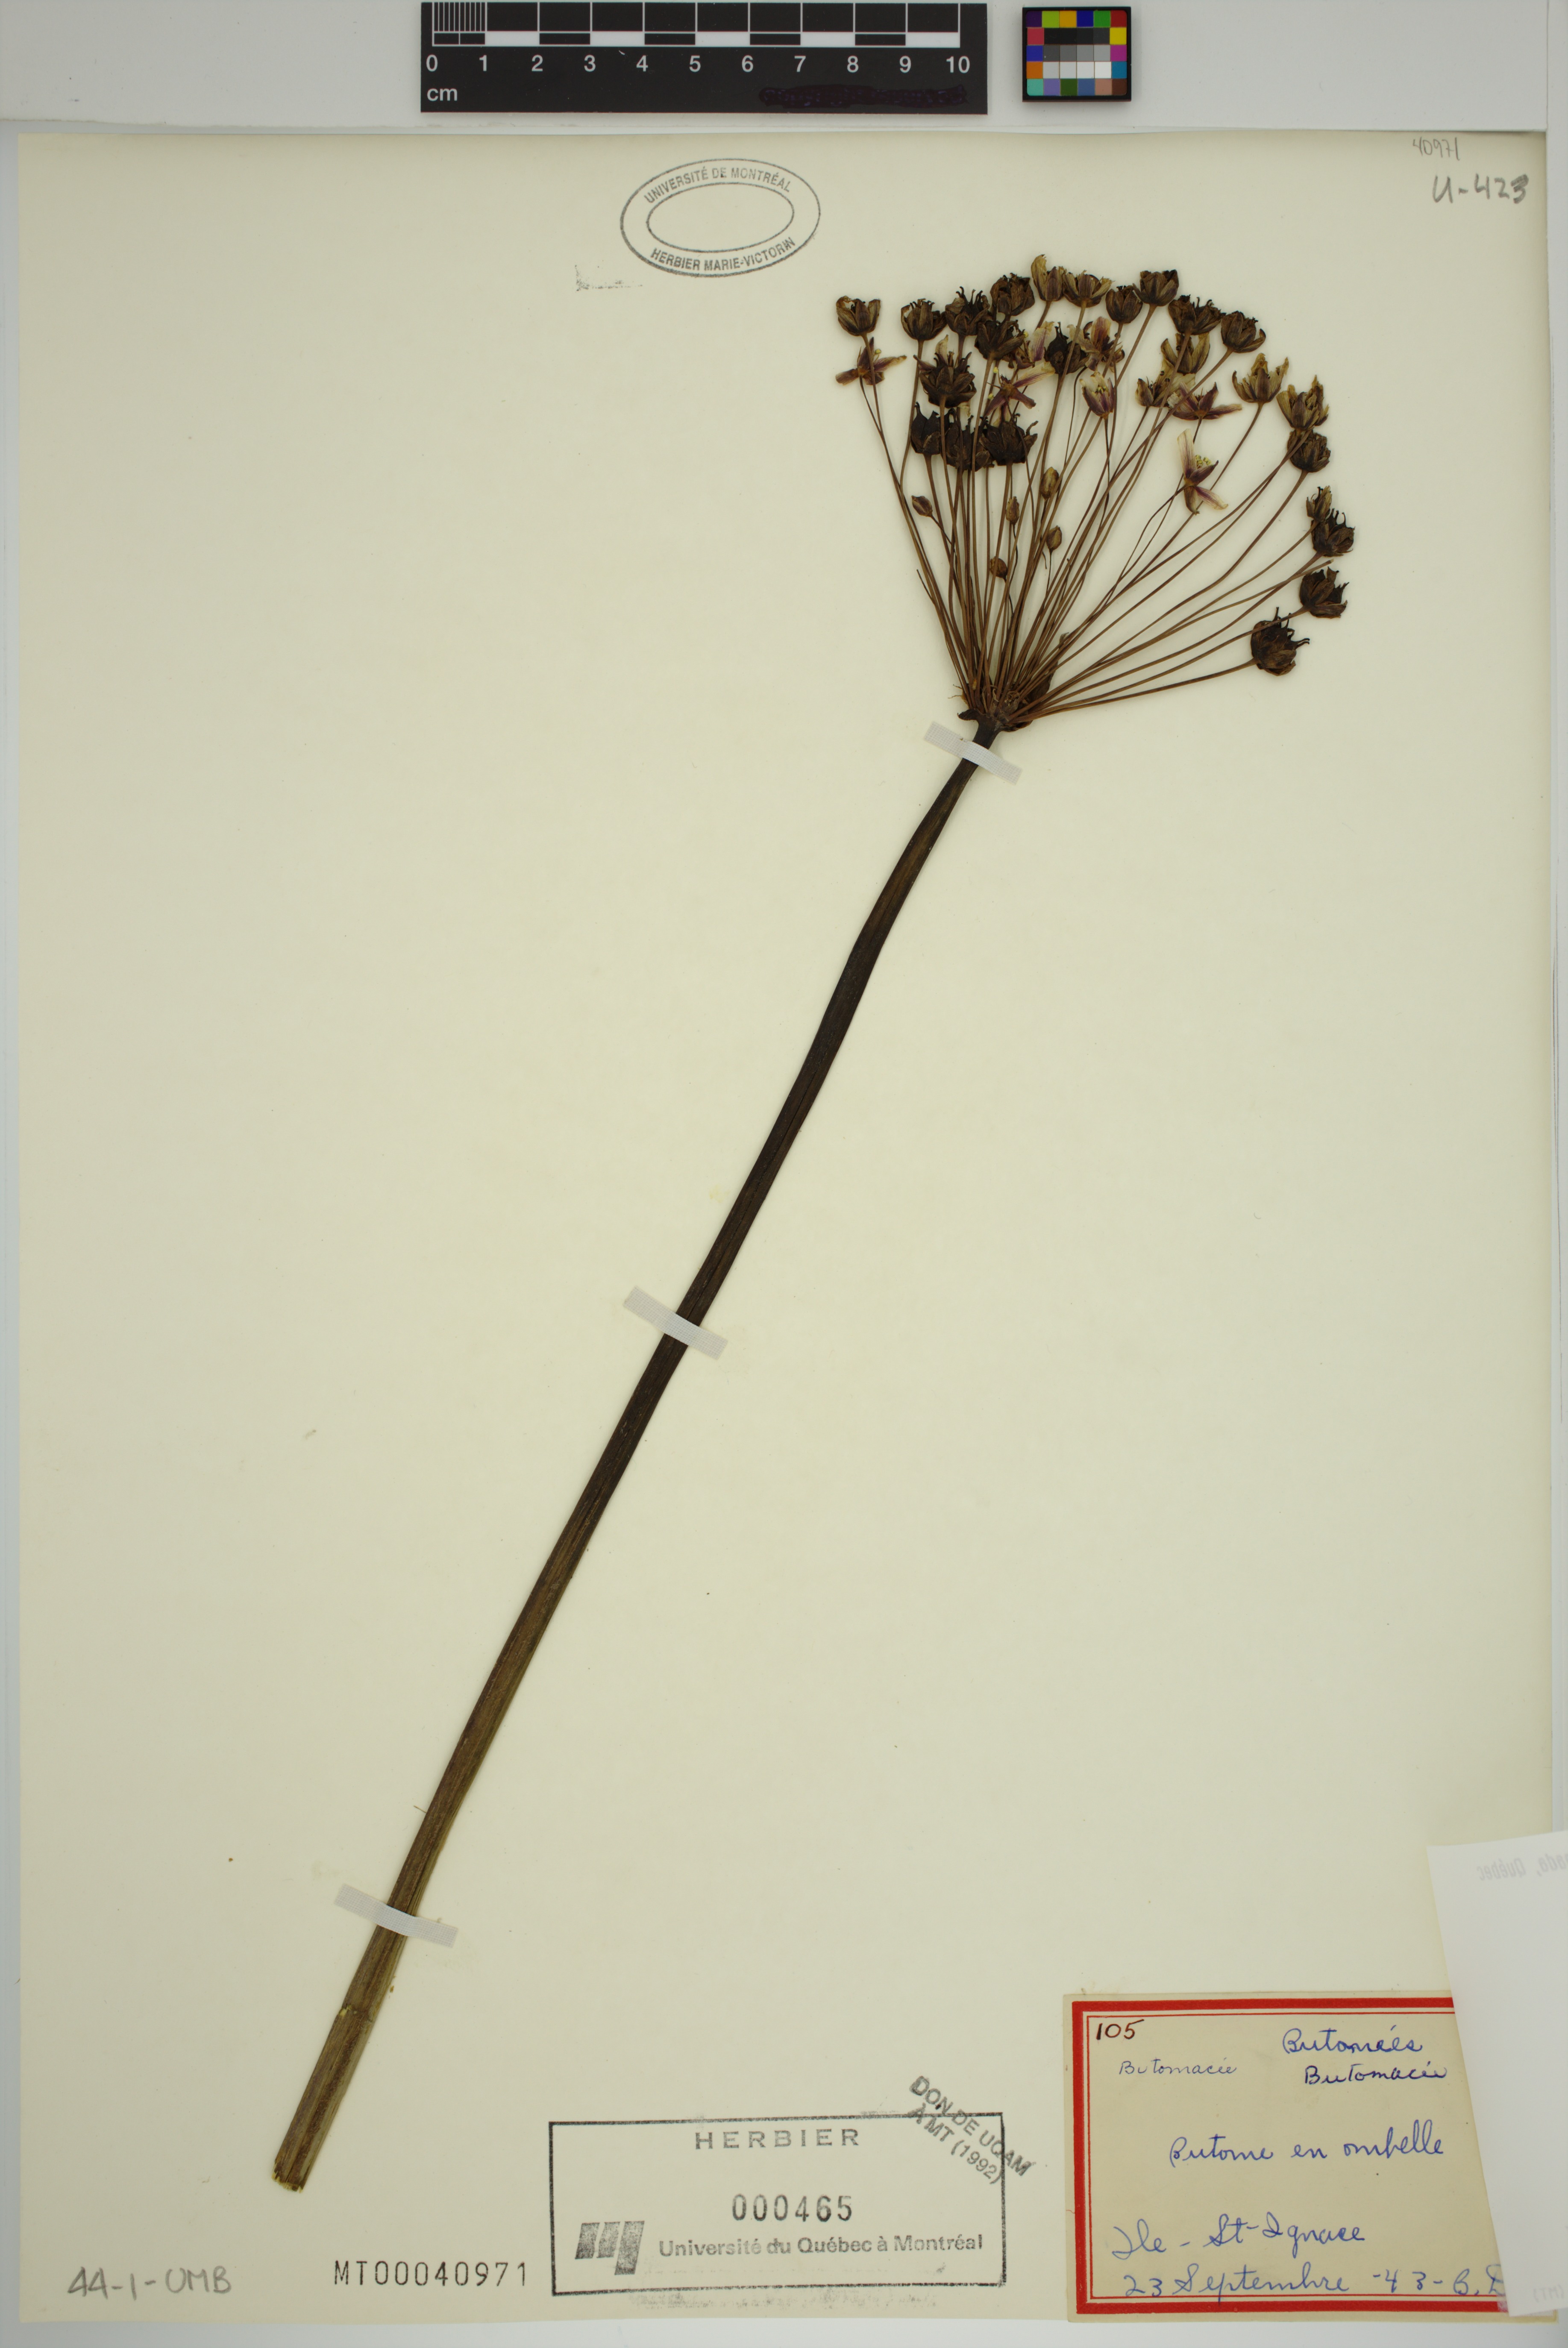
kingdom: Plantae
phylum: Tracheophyta
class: Liliopsida
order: Alismatales
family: Butomaceae
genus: Butomus
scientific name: Butomus umbellatus
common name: Flowering-rush
